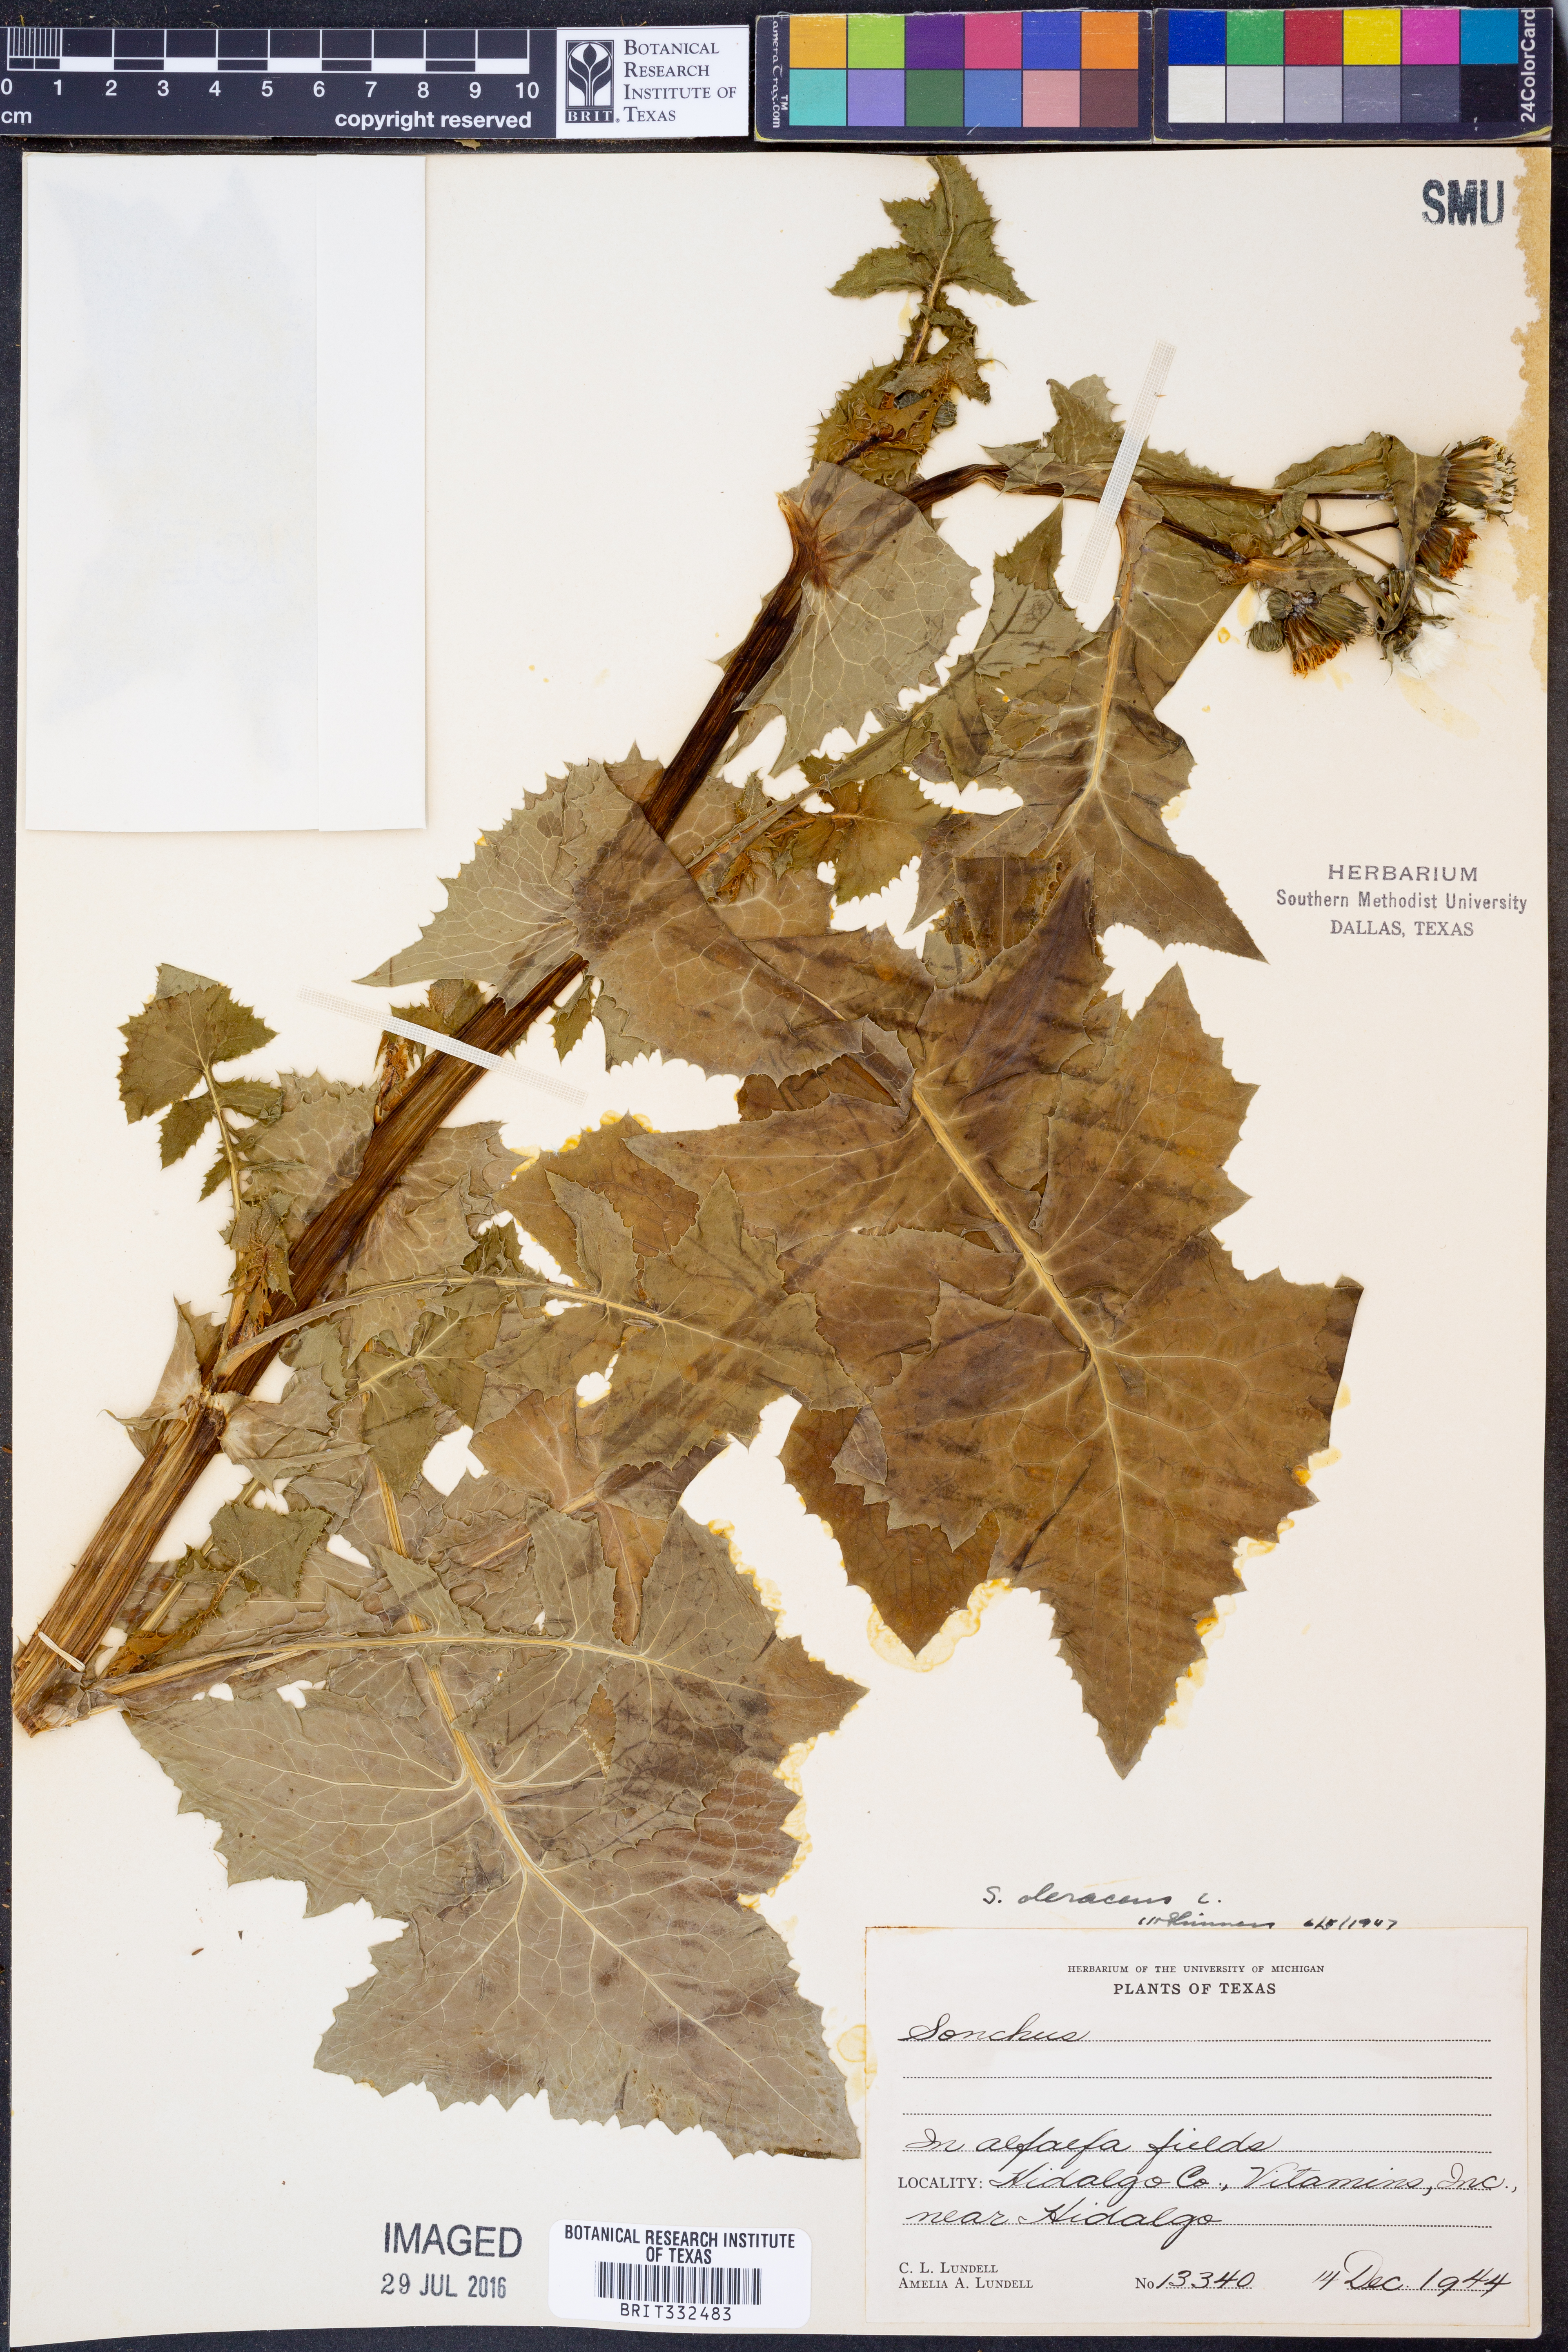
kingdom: Plantae
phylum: Tracheophyta
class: Magnoliopsida
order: Asterales
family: Asteraceae
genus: Sonchus
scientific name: Sonchus oleraceus
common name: Common sowthistle
